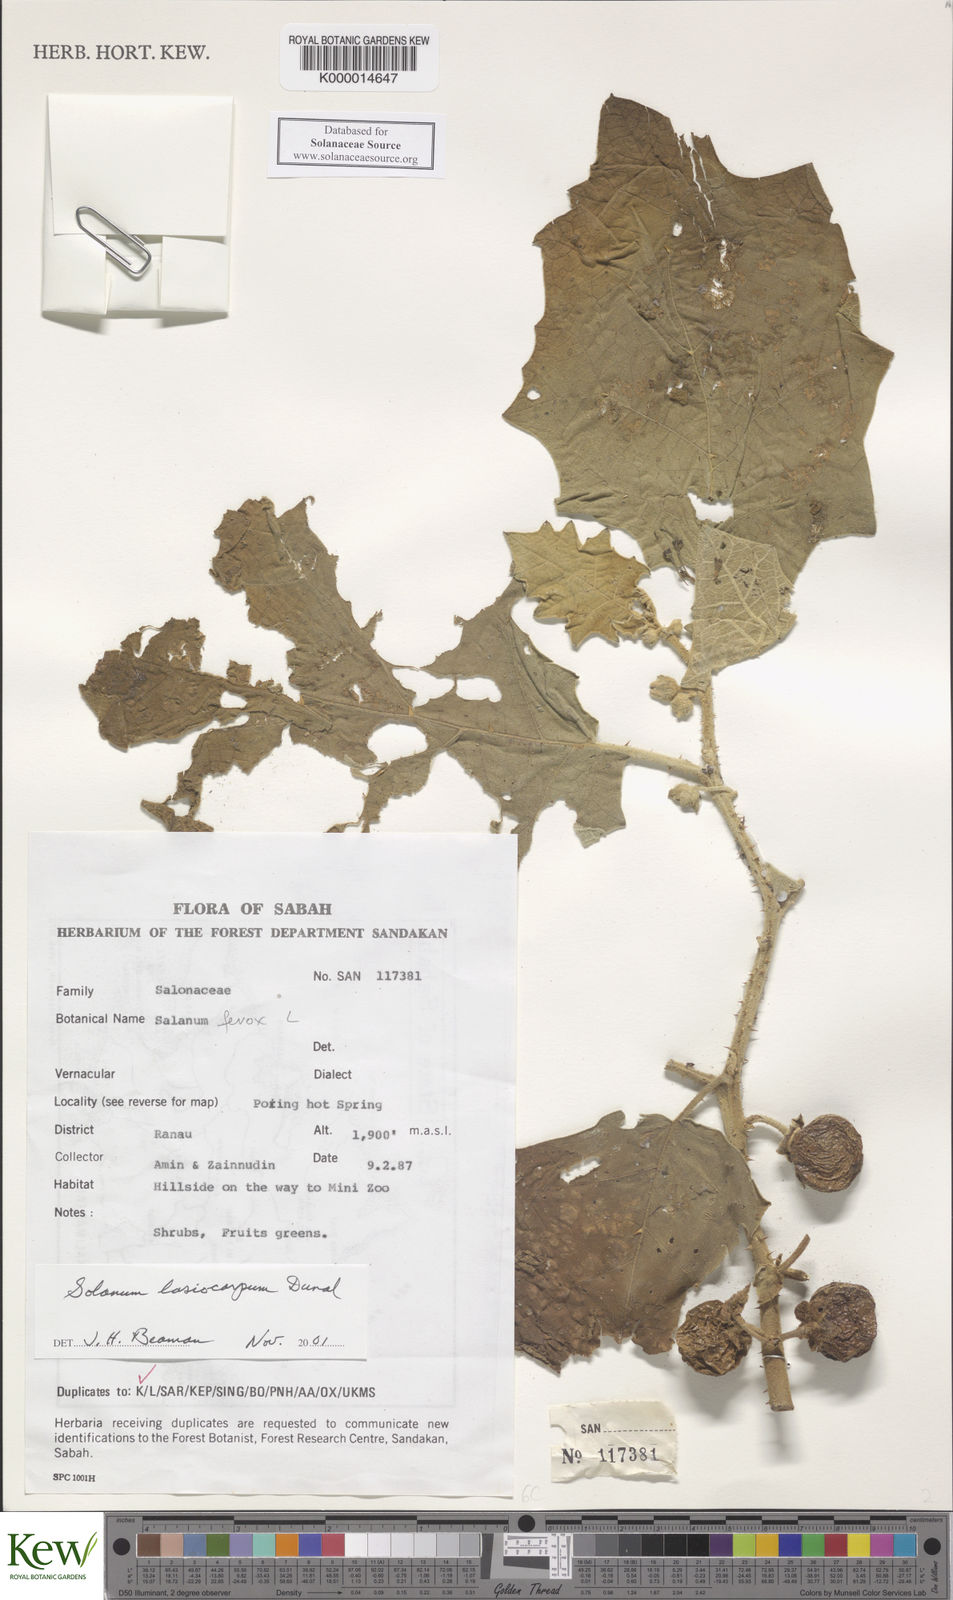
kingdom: Plantae
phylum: Tracheophyta
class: Magnoliopsida
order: Solanales
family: Solanaceae
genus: Solanum
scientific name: Solanum lasiocarpum
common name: Indian nightshade
